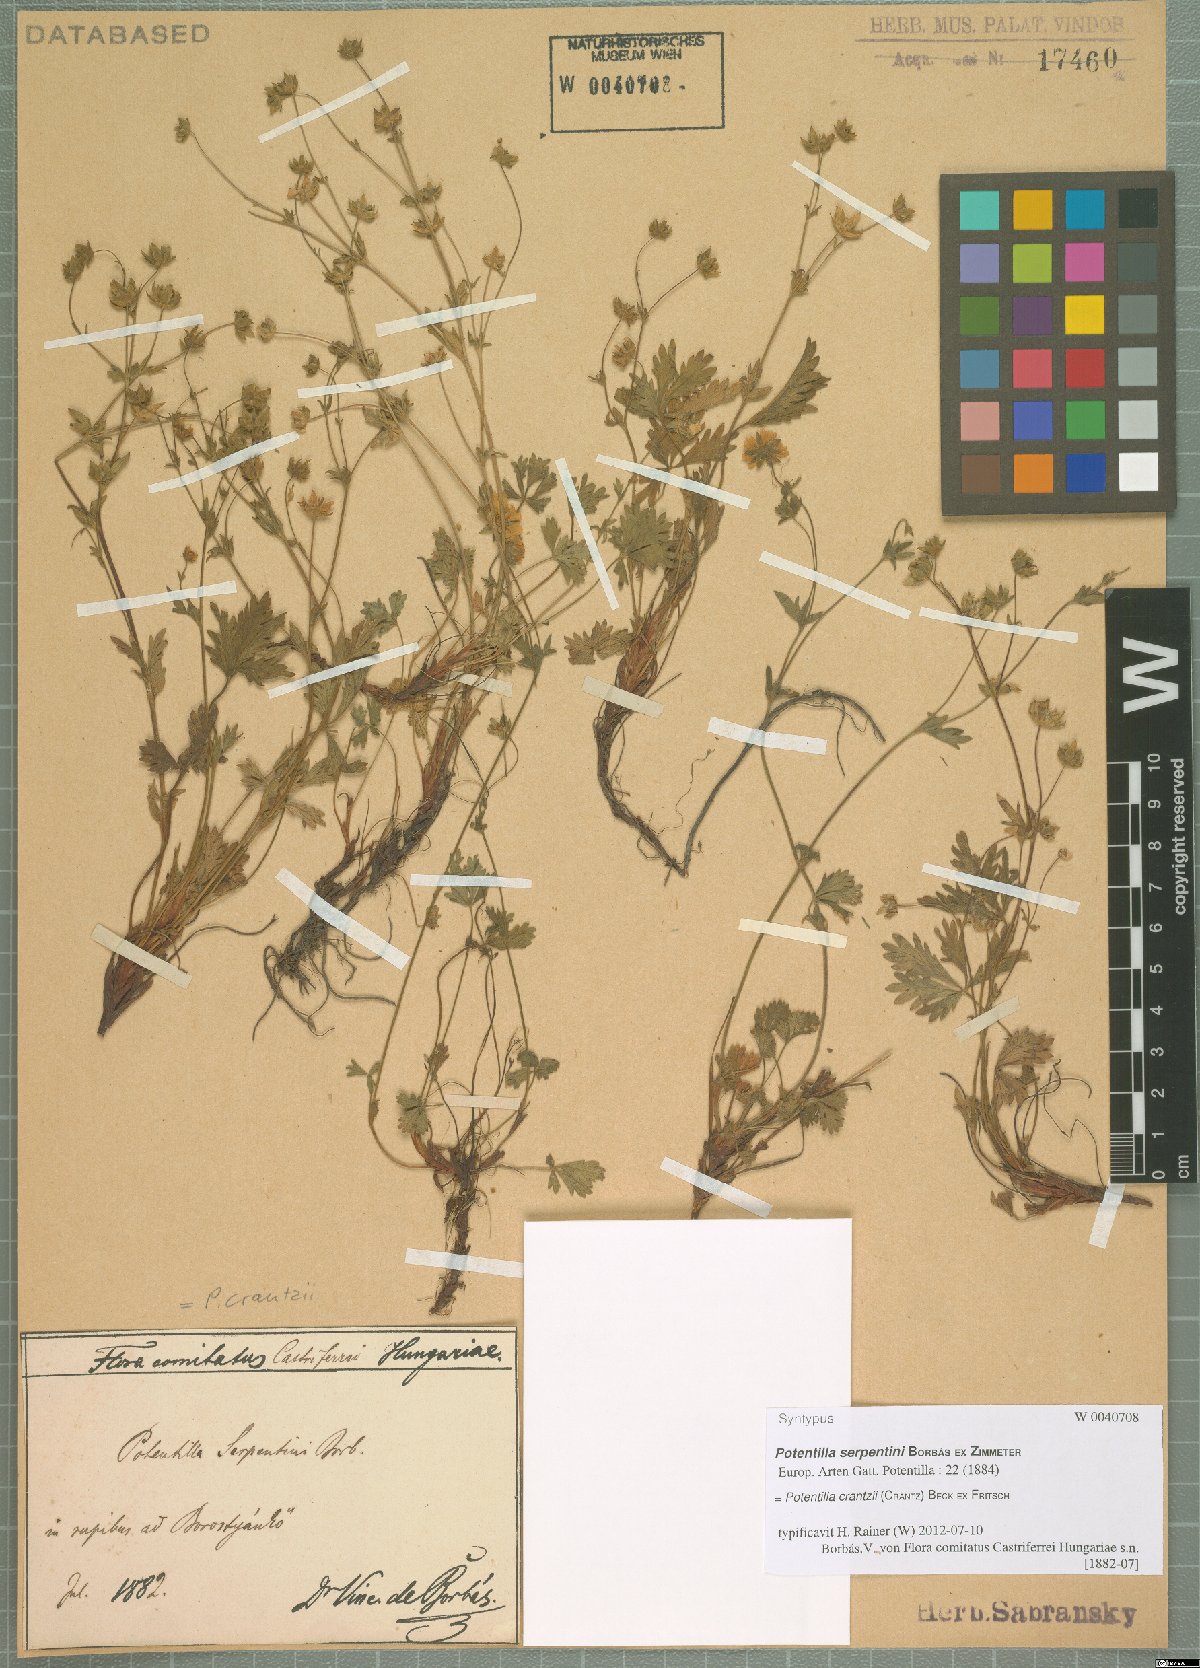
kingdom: Plantae
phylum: Tracheophyta
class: Magnoliopsida
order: Rosales
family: Rosaceae
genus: Potentilla
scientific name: Potentilla crantzii
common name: Alpine cinquefoil
